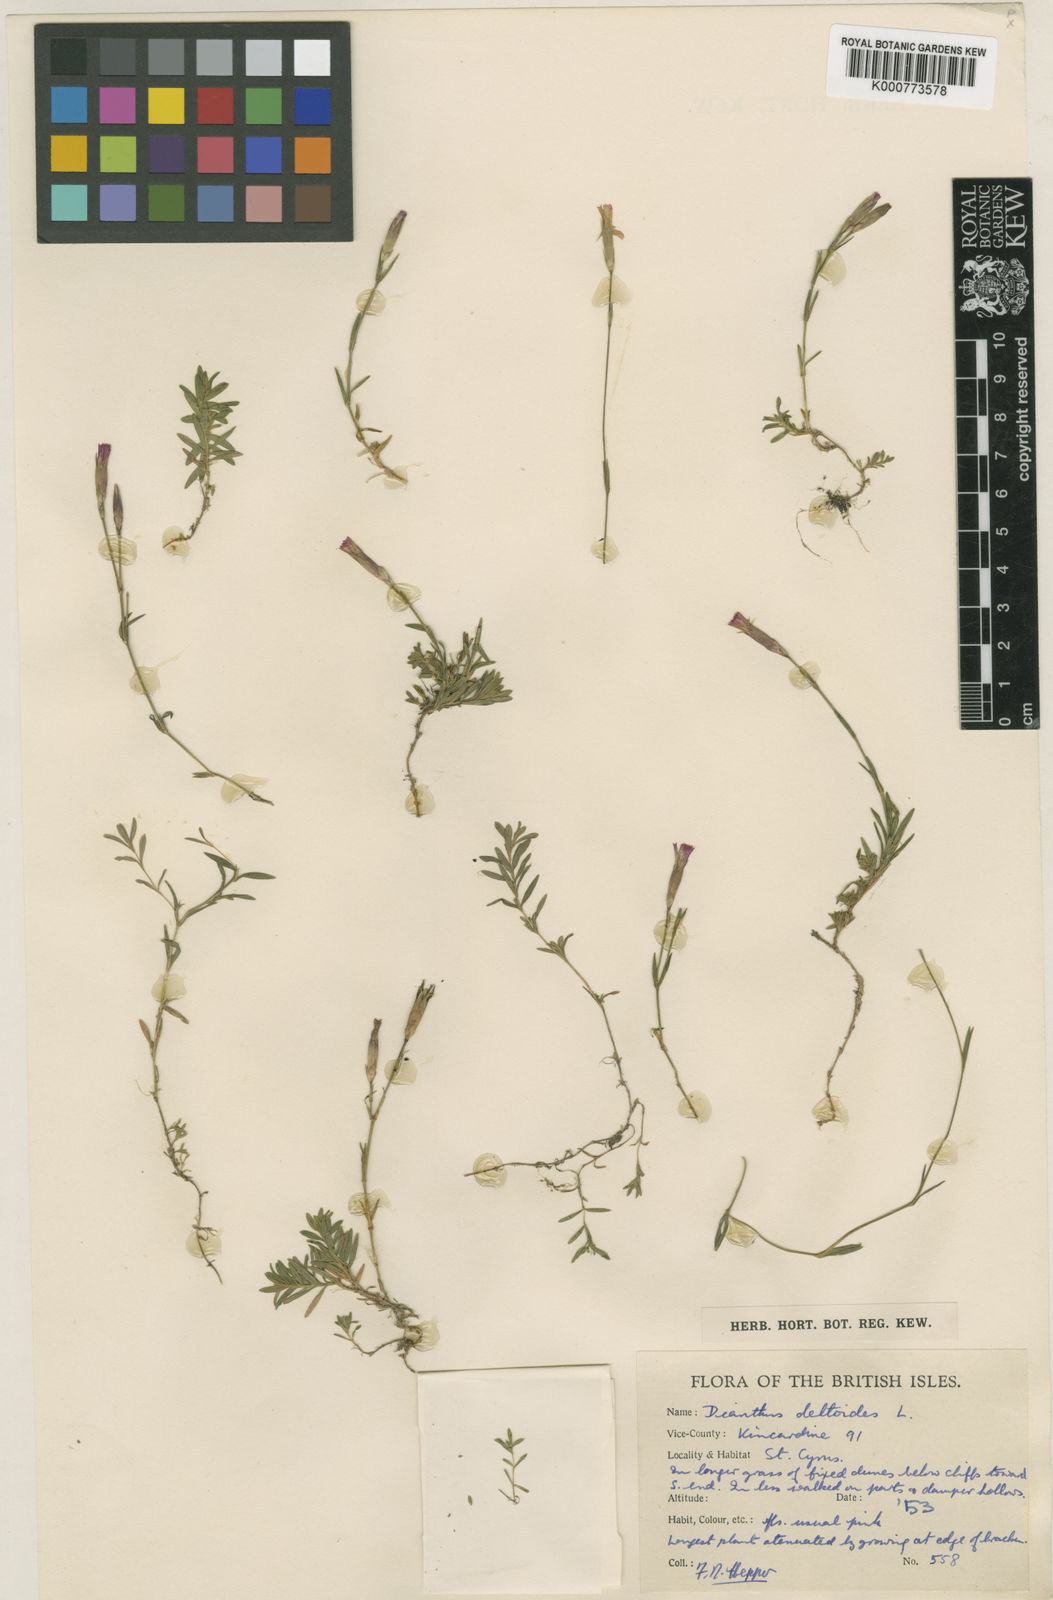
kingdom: Plantae
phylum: Tracheophyta
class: Magnoliopsida
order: Caryophyllales
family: Caryophyllaceae
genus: Dianthus
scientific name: Dianthus deltoides
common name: Maiden pink
